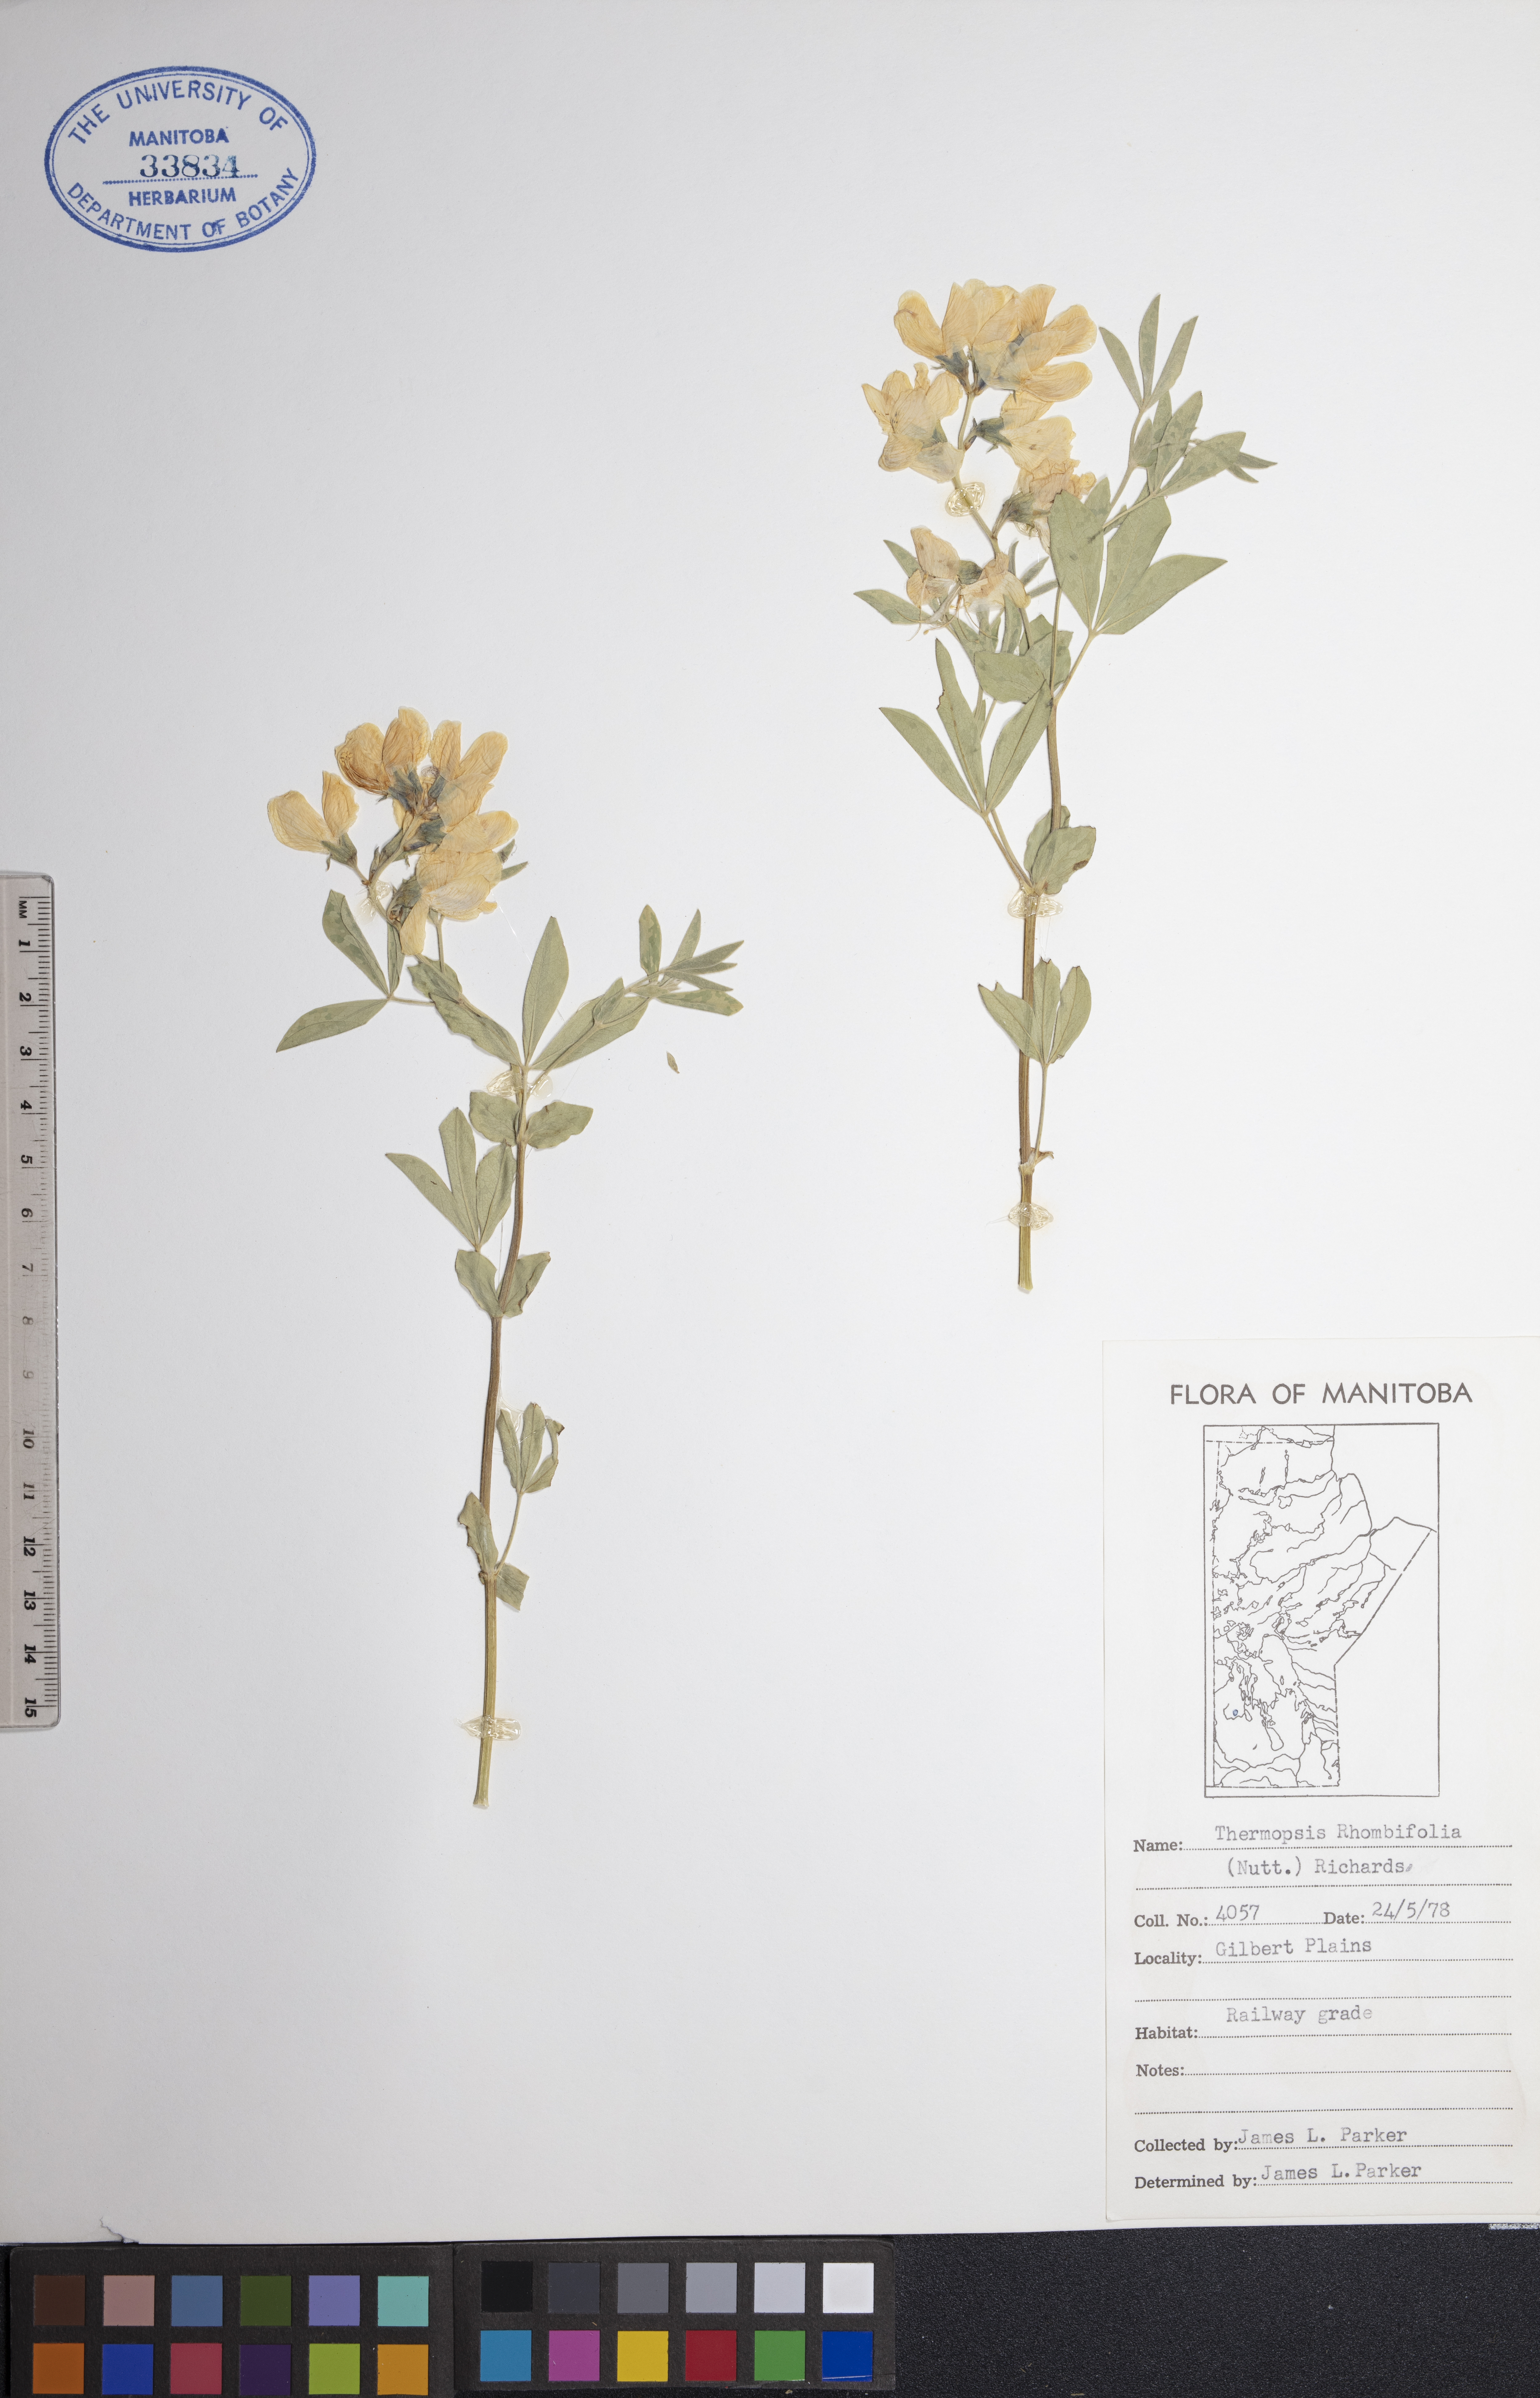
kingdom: Plantae
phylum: Tracheophyta
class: Magnoliopsida
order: Fabales
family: Fabaceae
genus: Thermopsis
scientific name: Thermopsis rhombifolia
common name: Circle-pod-pea
